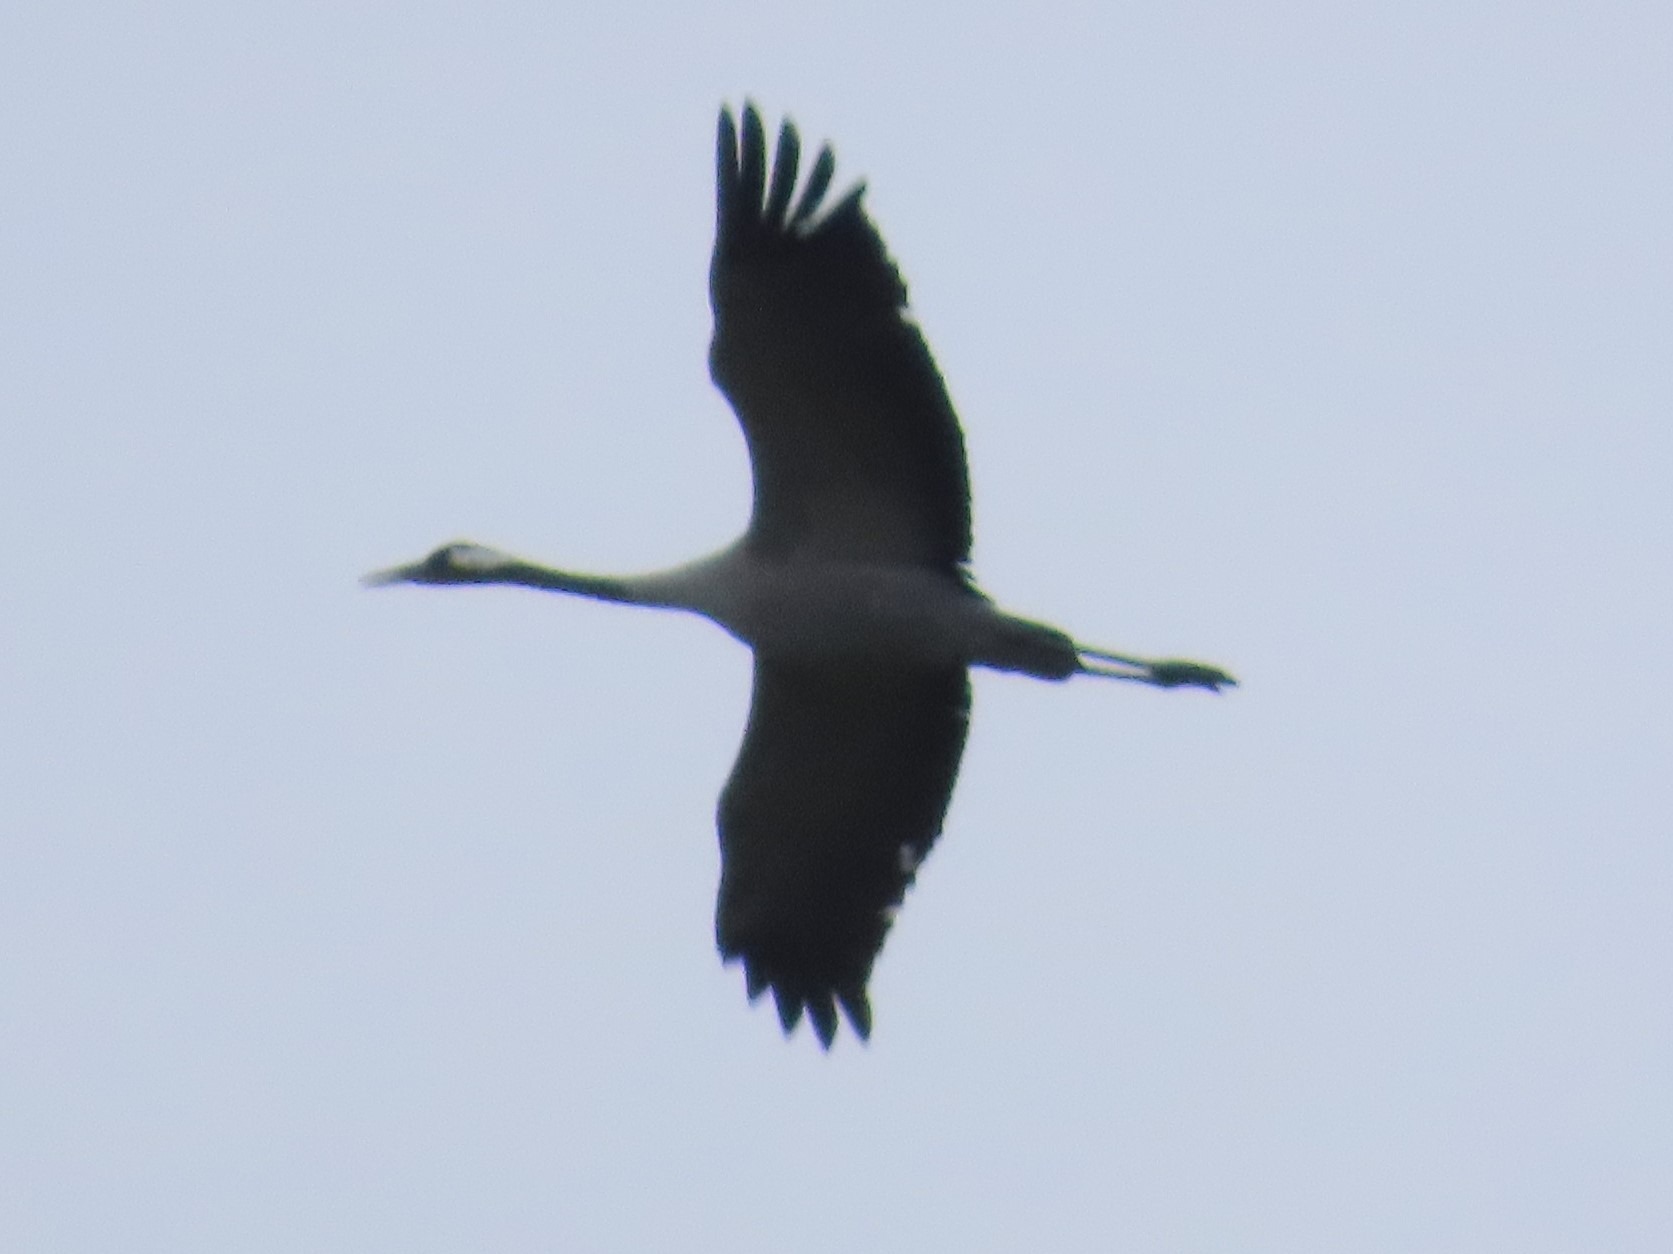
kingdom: Animalia
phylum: Chordata
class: Aves
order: Gruiformes
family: Gruidae
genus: Grus
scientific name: Grus grus
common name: Trane
